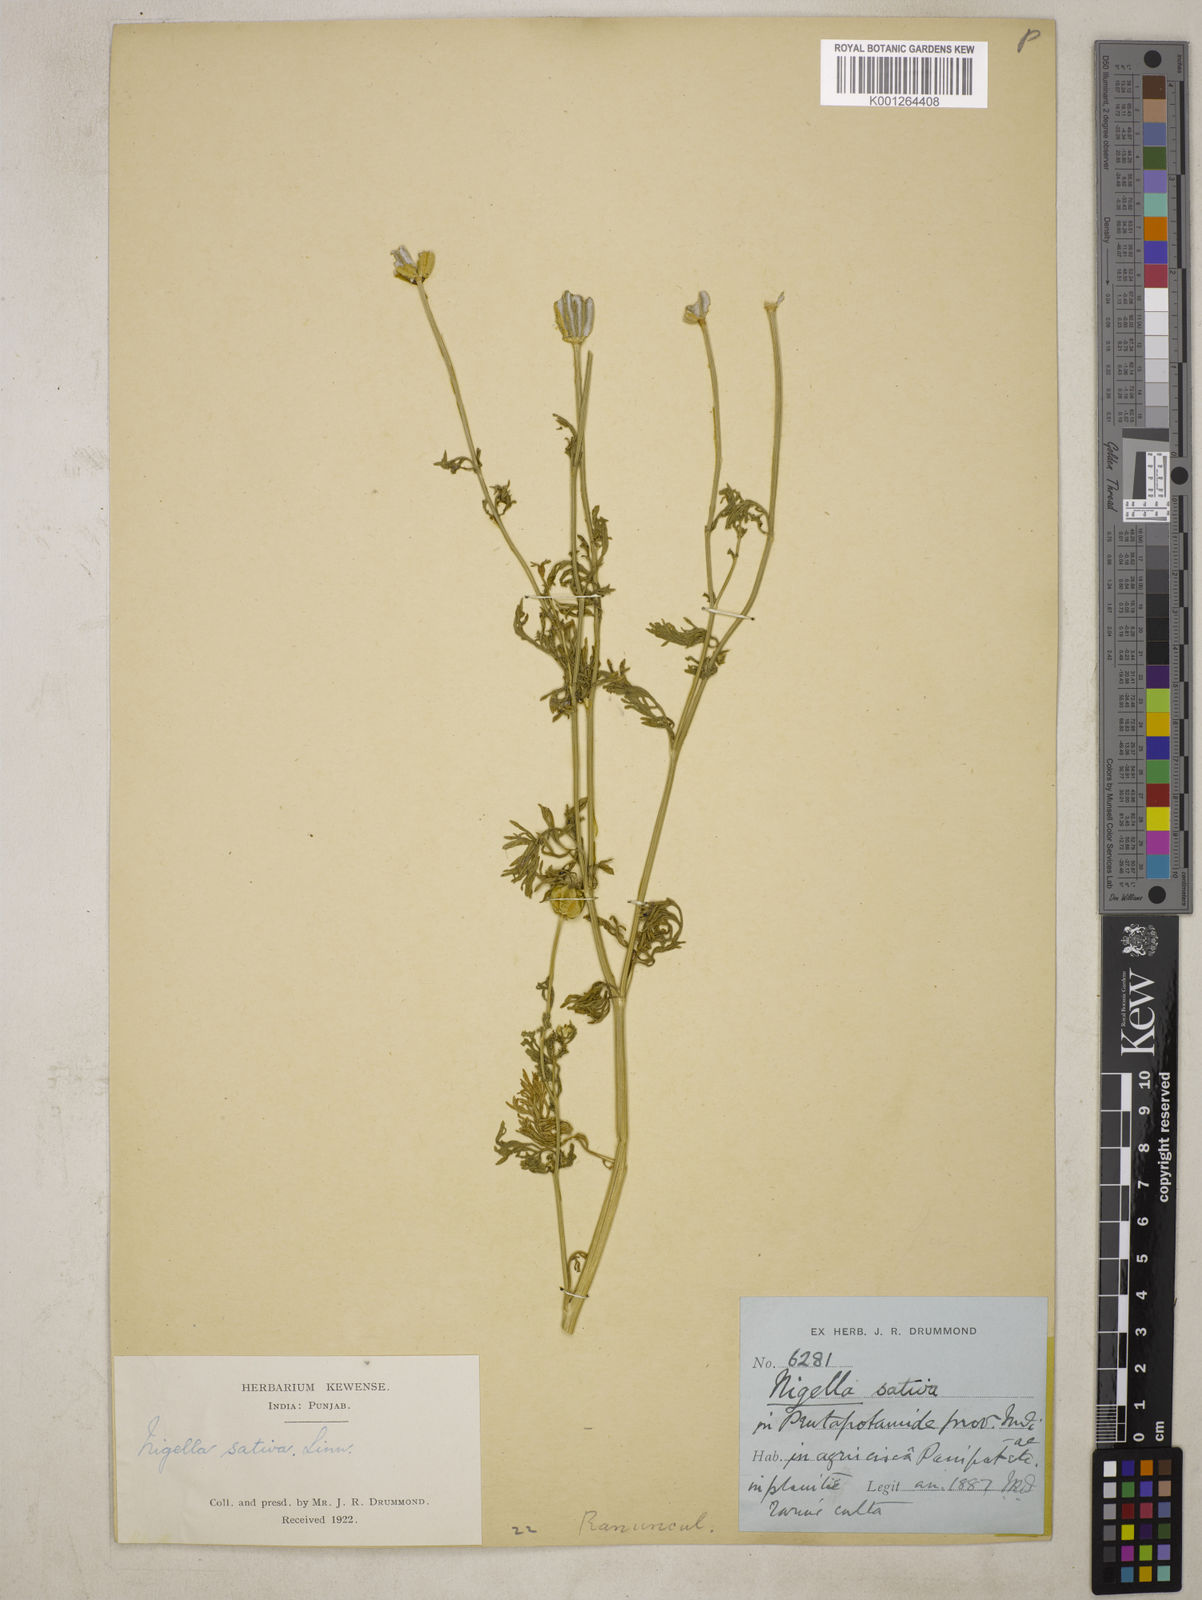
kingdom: Plantae
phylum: Tracheophyta
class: Magnoliopsida
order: Ranunculales
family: Ranunculaceae
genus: Nigella
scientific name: Nigella sativa
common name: Black-cumin
